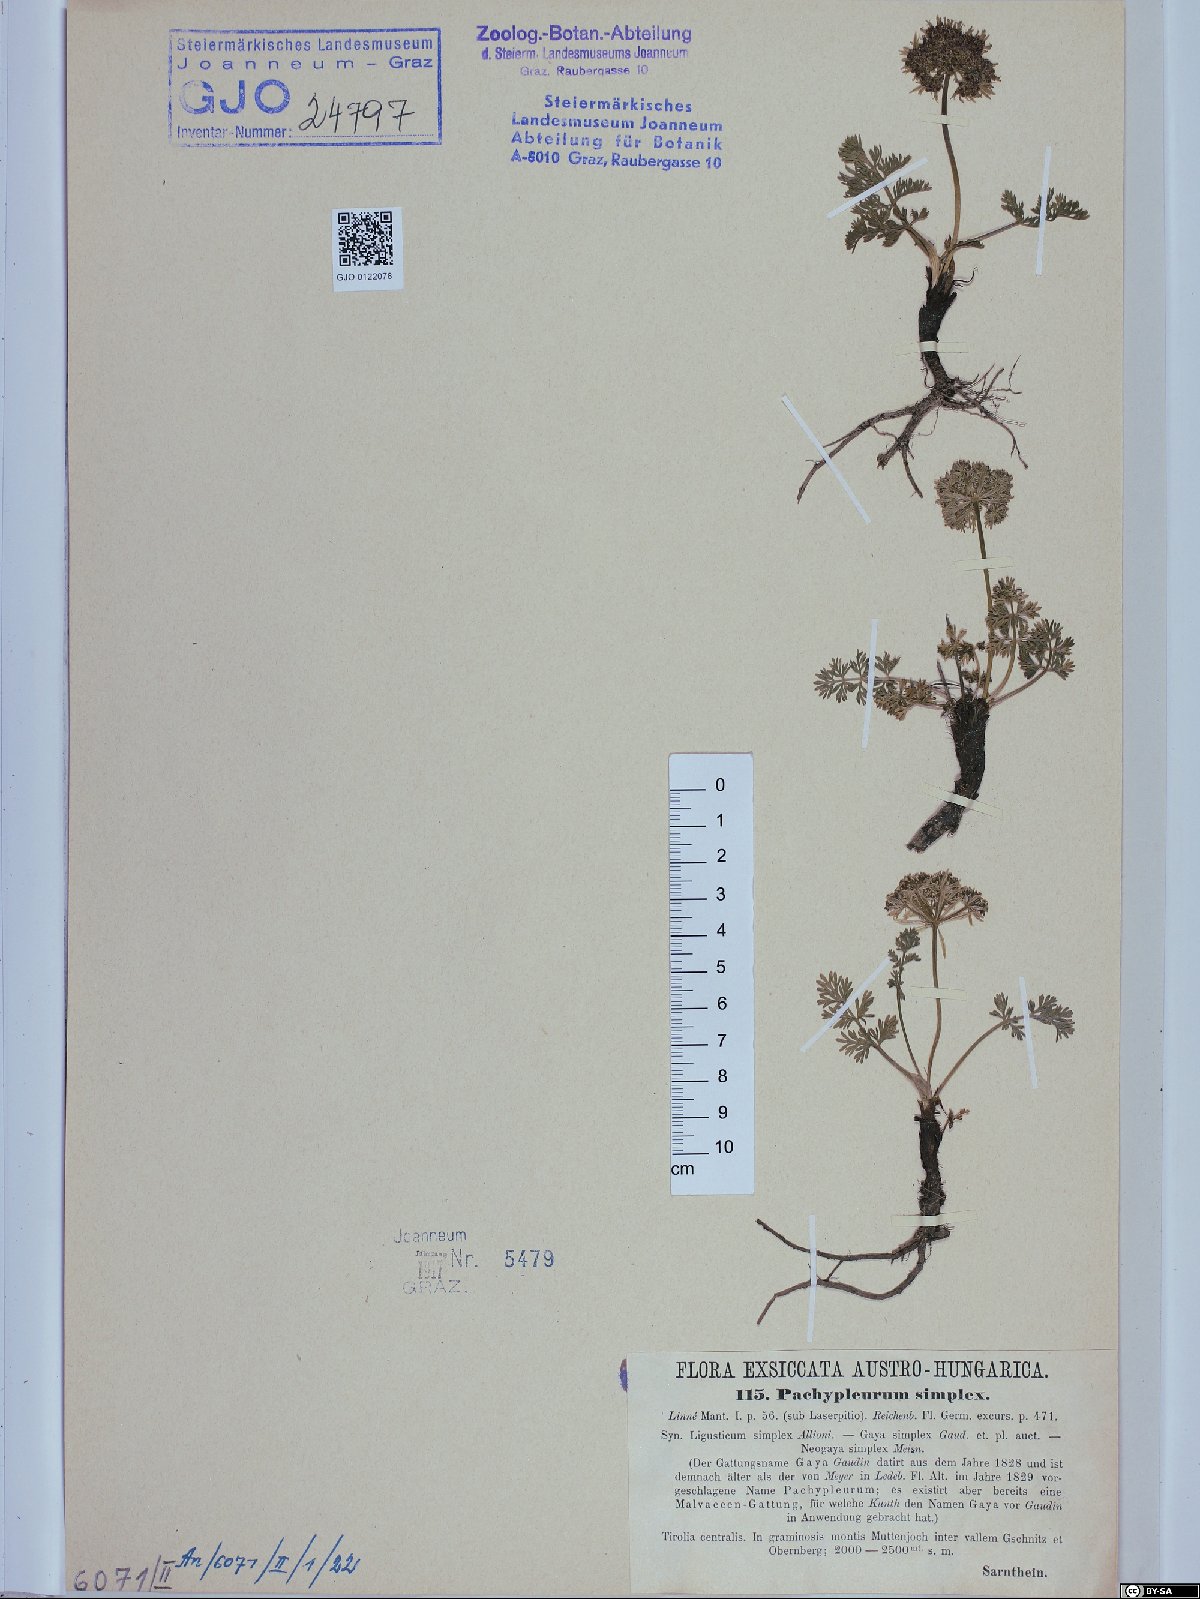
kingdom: Plantae
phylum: Tracheophyta
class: Magnoliopsida
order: Apiales
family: Apiaceae
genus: Pachypleurum
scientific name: Pachypleurum mutellinoides
